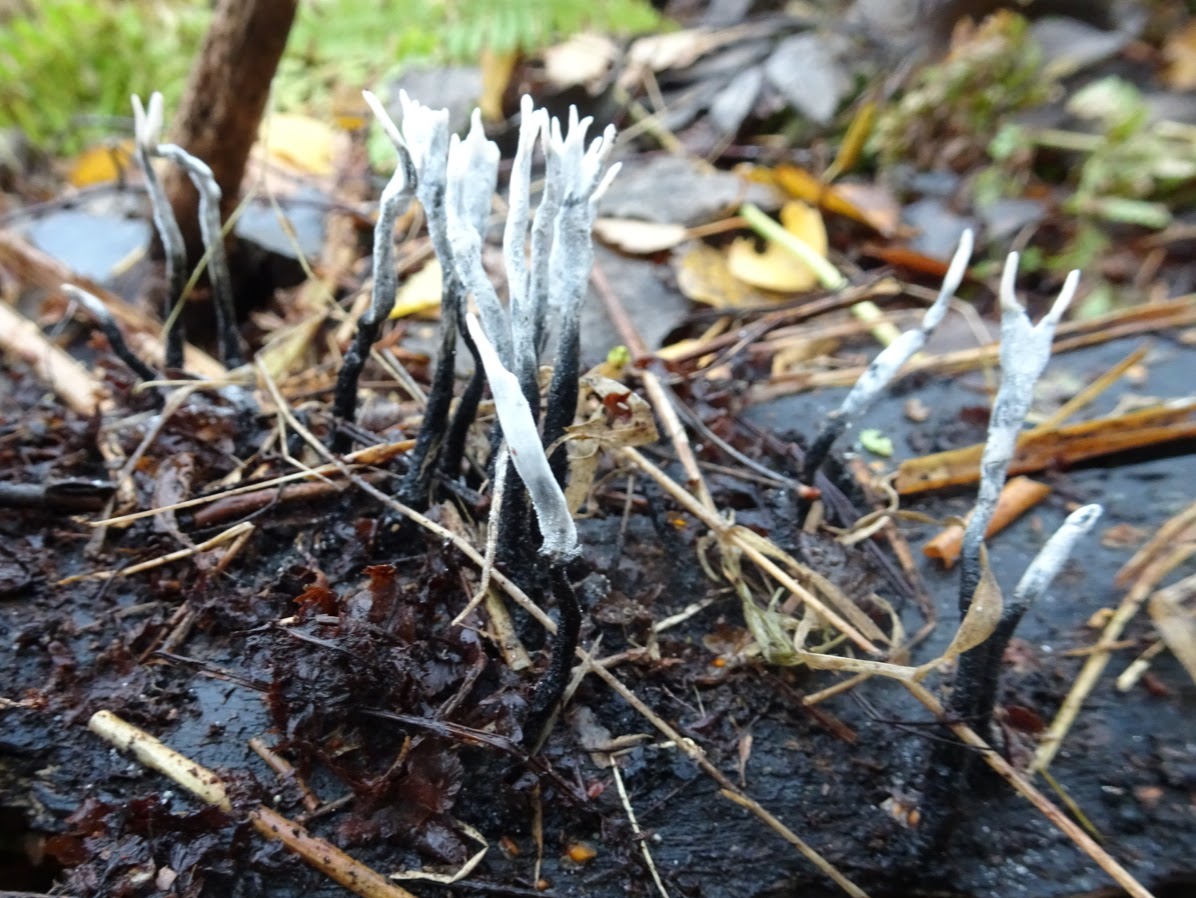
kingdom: Fungi
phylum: Ascomycota
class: Sordariomycetes
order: Xylariales
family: Xylariaceae
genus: Xylaria
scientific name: Xylaria hypoxylon
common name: grenet stødsvamp
